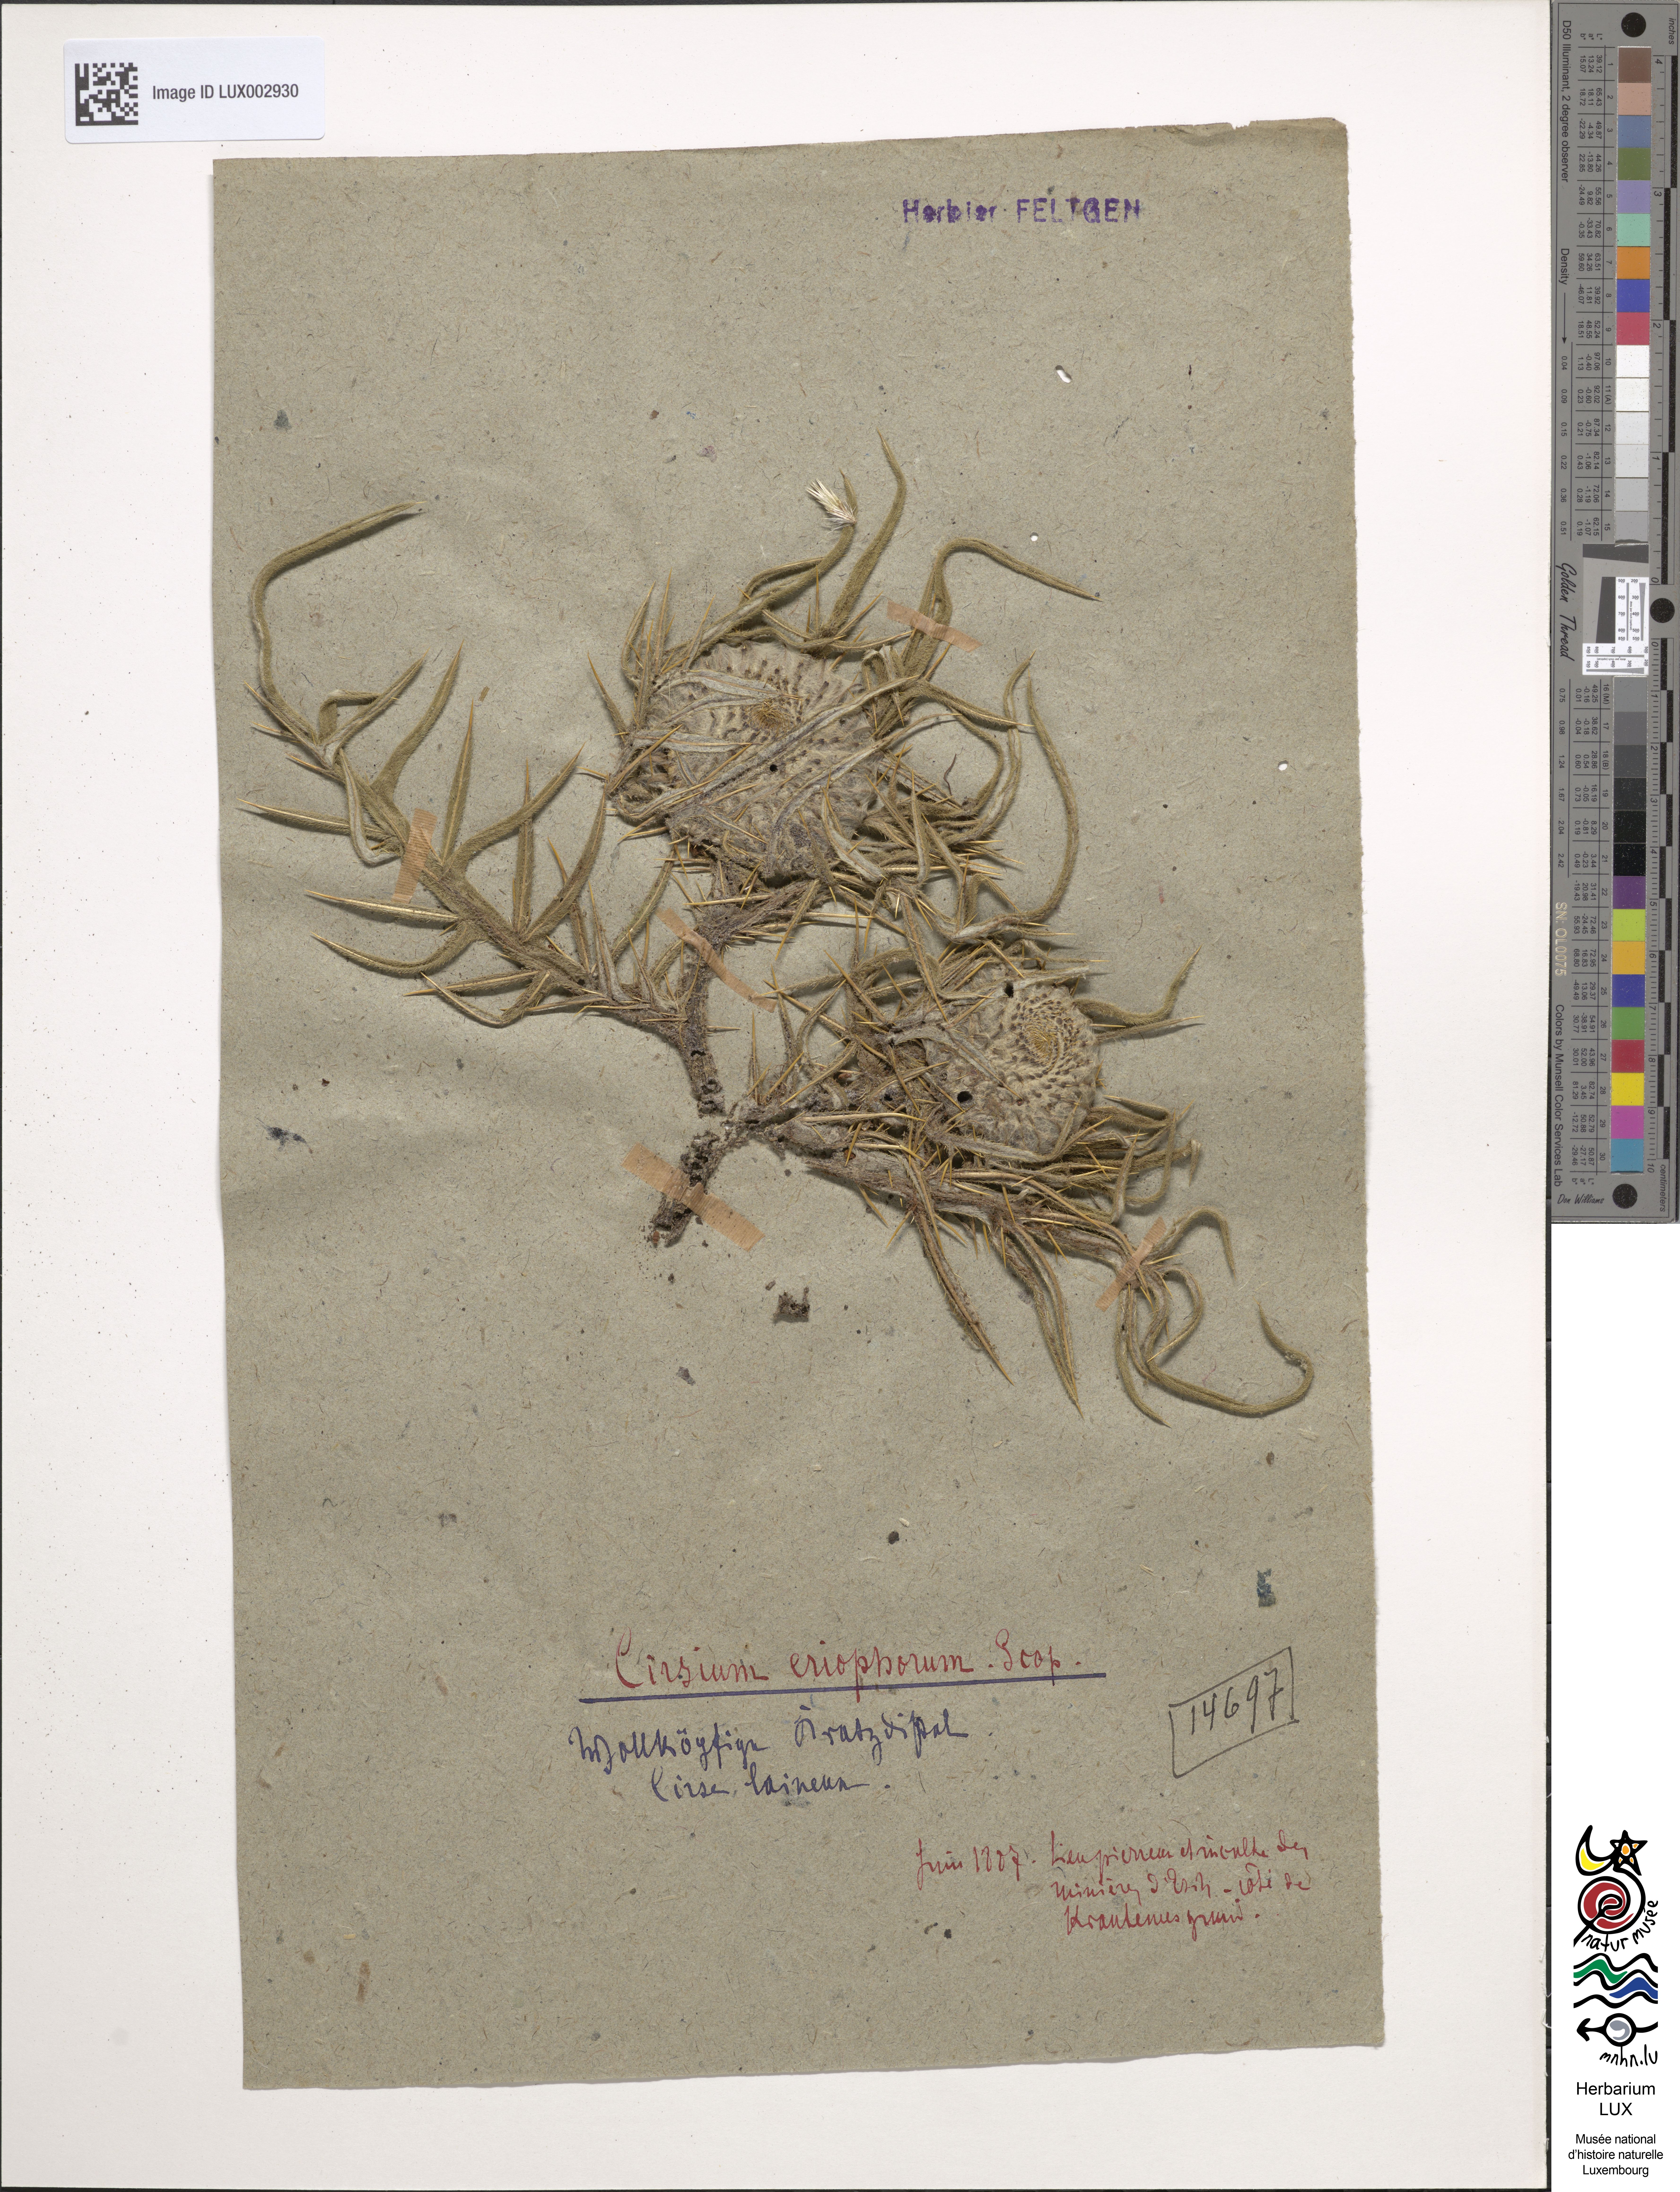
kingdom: Plantae
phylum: Tracheophyta
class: Magnoliopsida
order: Asterales
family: Asteraceae
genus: Lophiolepis
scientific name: Lophiolepis eriophora
